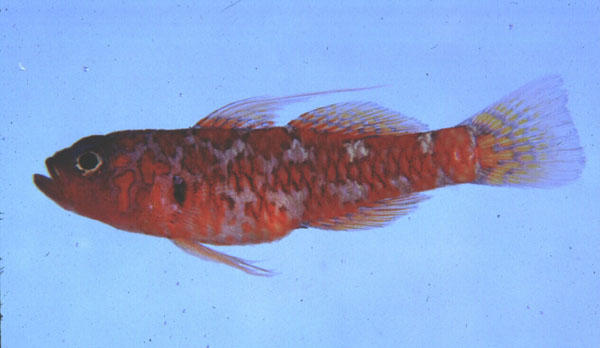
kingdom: Animalia
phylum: Chordata
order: Perciformes
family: Gobiidae
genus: Trimma
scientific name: Trimma naudei
